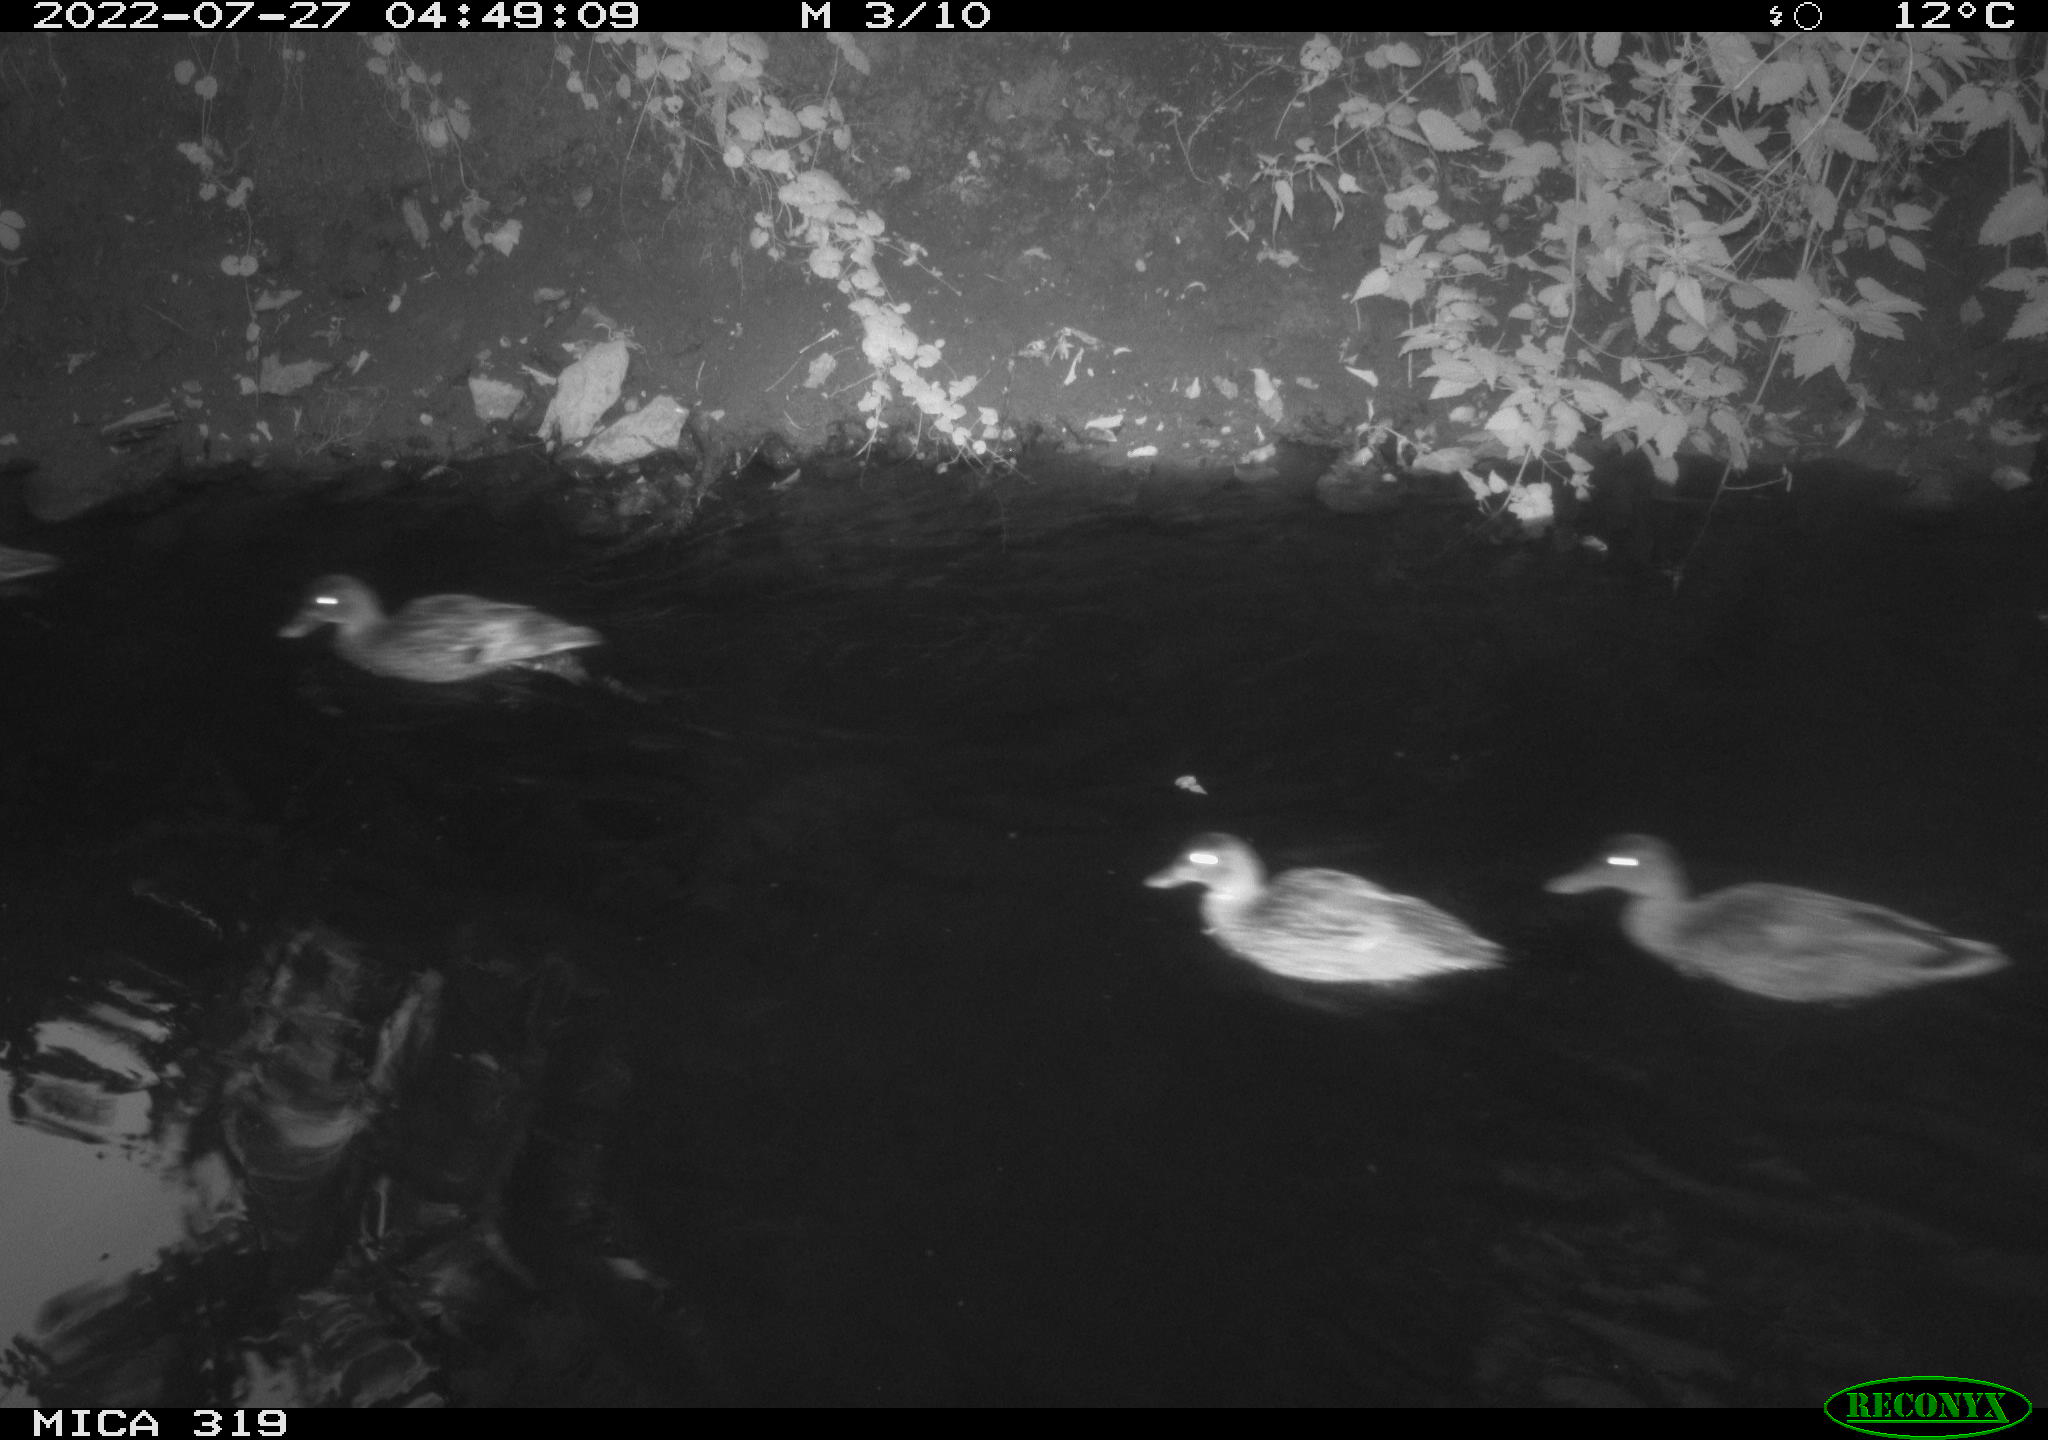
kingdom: Animalia
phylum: Chordata
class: Aves
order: Anseriformes
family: Anatidae
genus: Anas
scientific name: Anas
